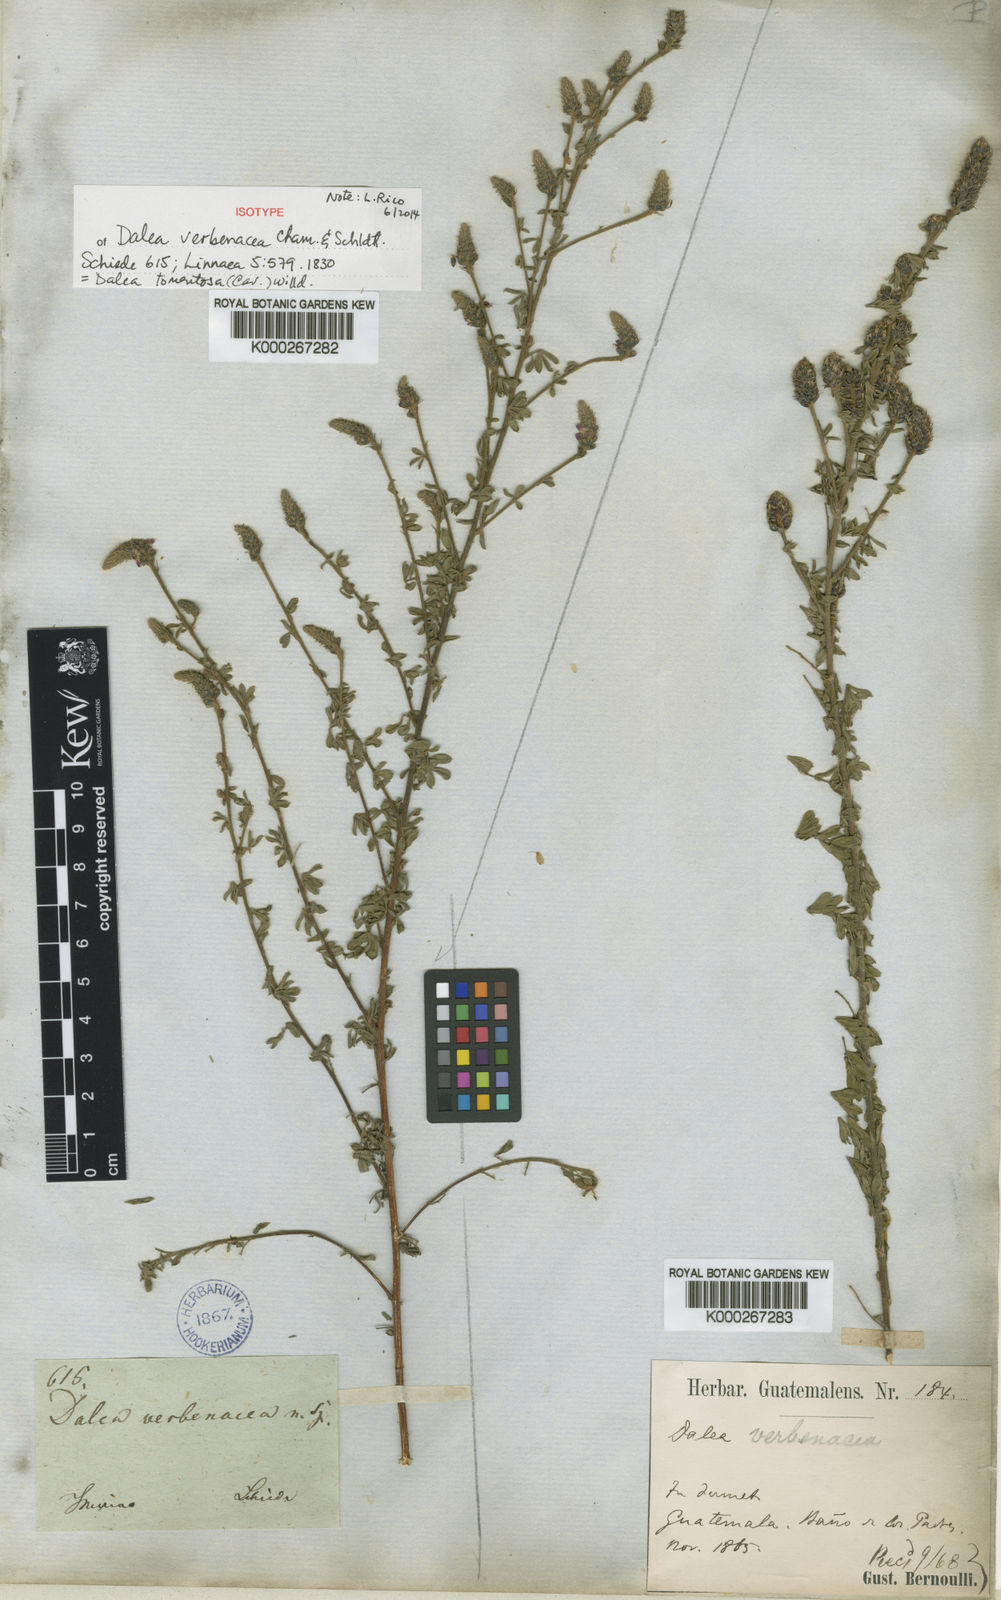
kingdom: Plantae
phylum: Tracheophyta
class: Magnoliopsida
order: Fabales
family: Fabaceae
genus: Dalea
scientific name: Dalea tomentosa
